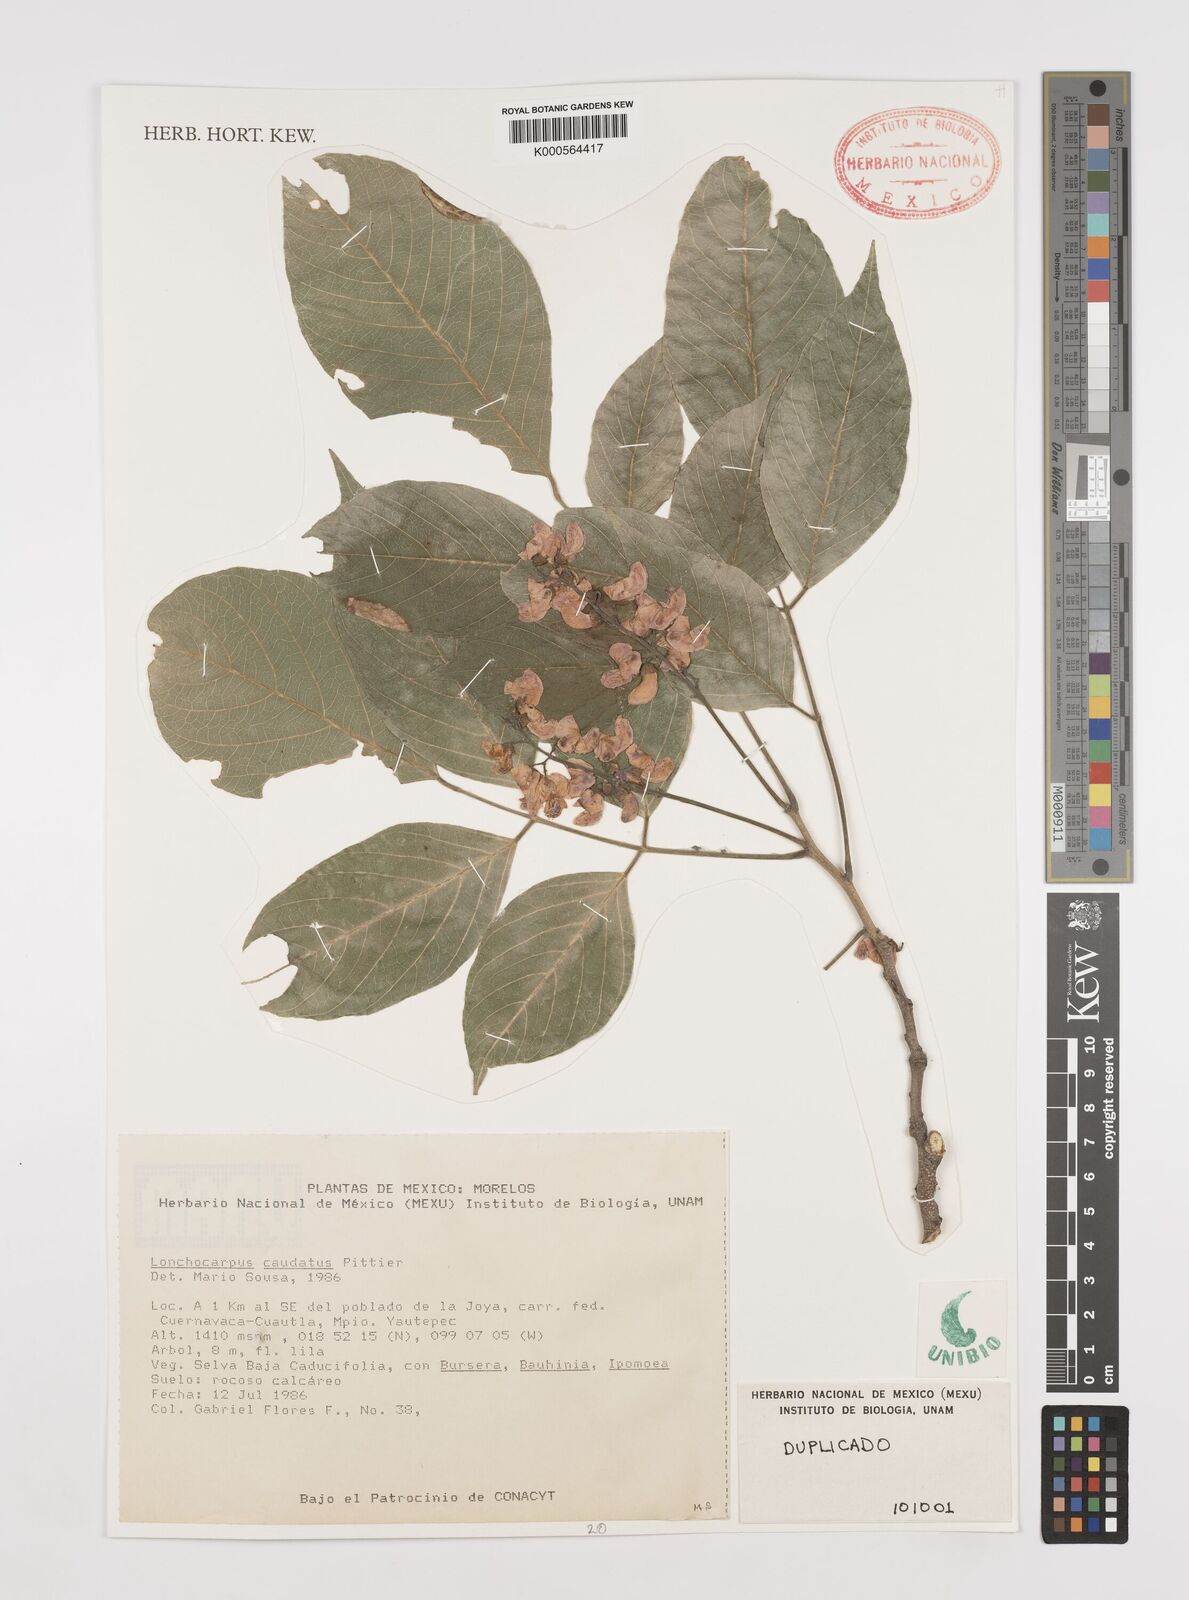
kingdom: Plantae
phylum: Tracheophyta
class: Magnoliopsida
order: Fabales
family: Fabaceae
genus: Lonchocarpus
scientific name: Lonchocarpus caudatus
